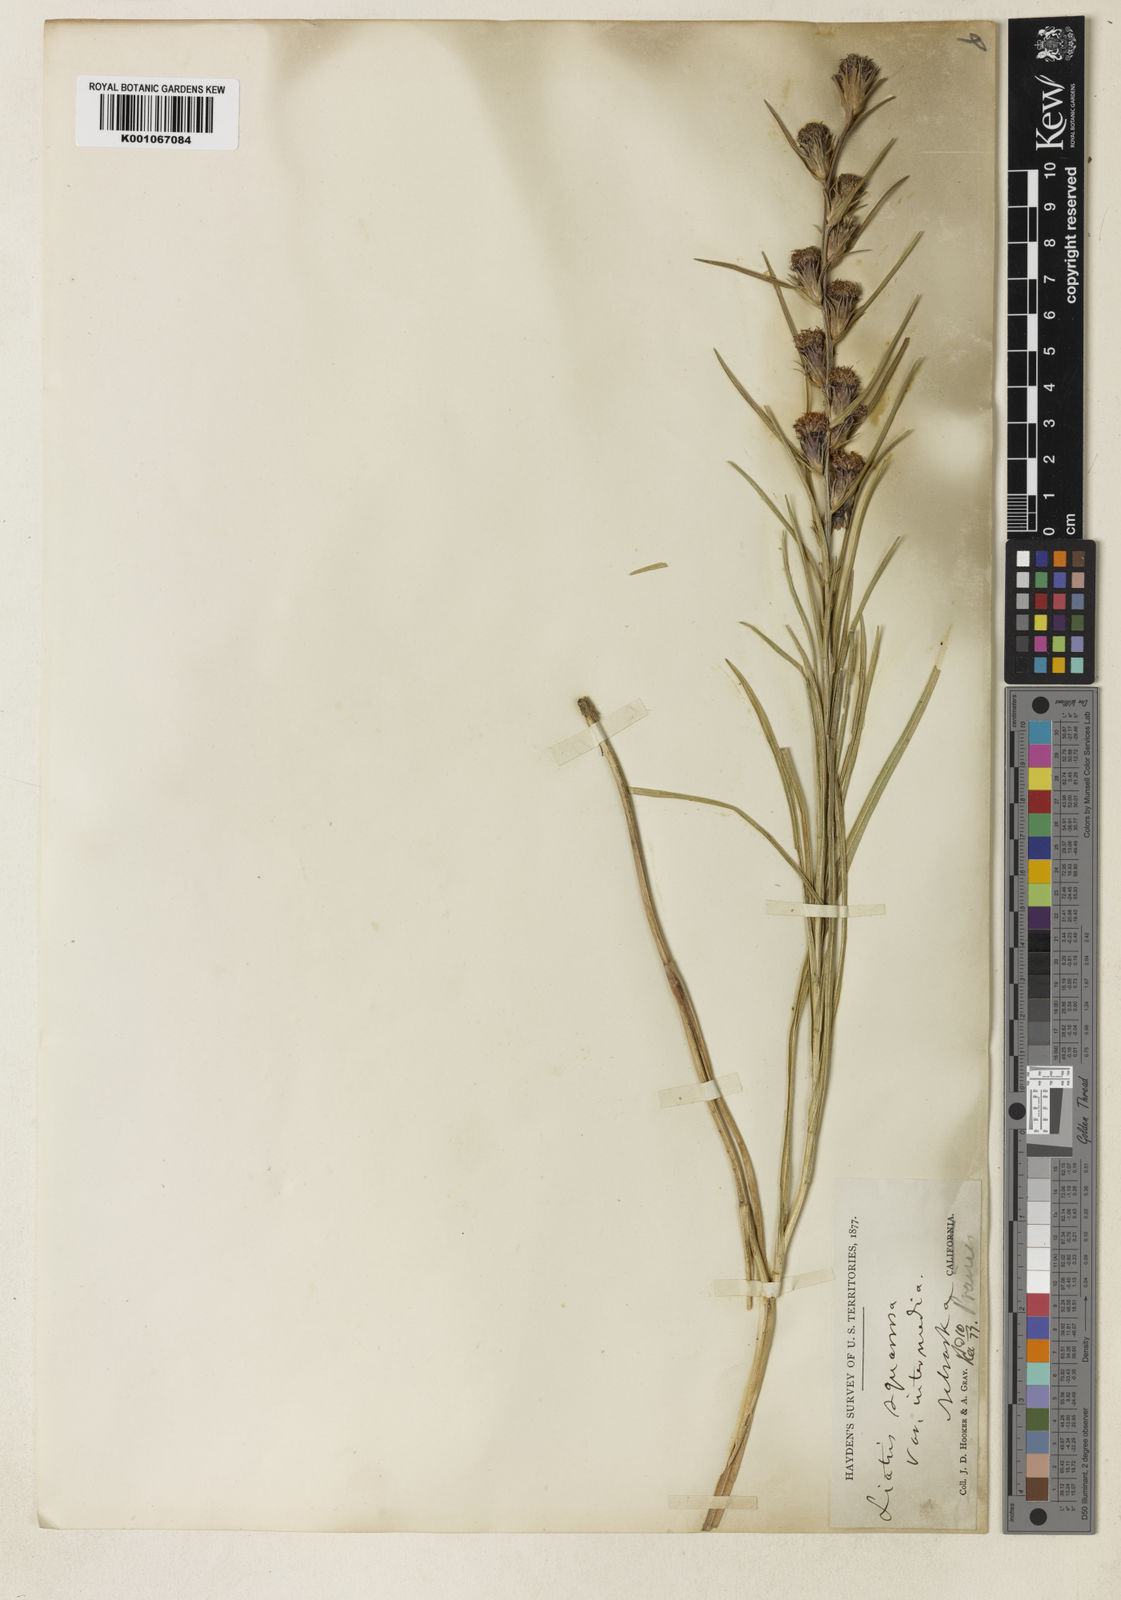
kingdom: Plantae
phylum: Tracheophyta
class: Magnoliopsida
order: Asterales
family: Asteraceae
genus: Liatris
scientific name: Liatris squarrosa
